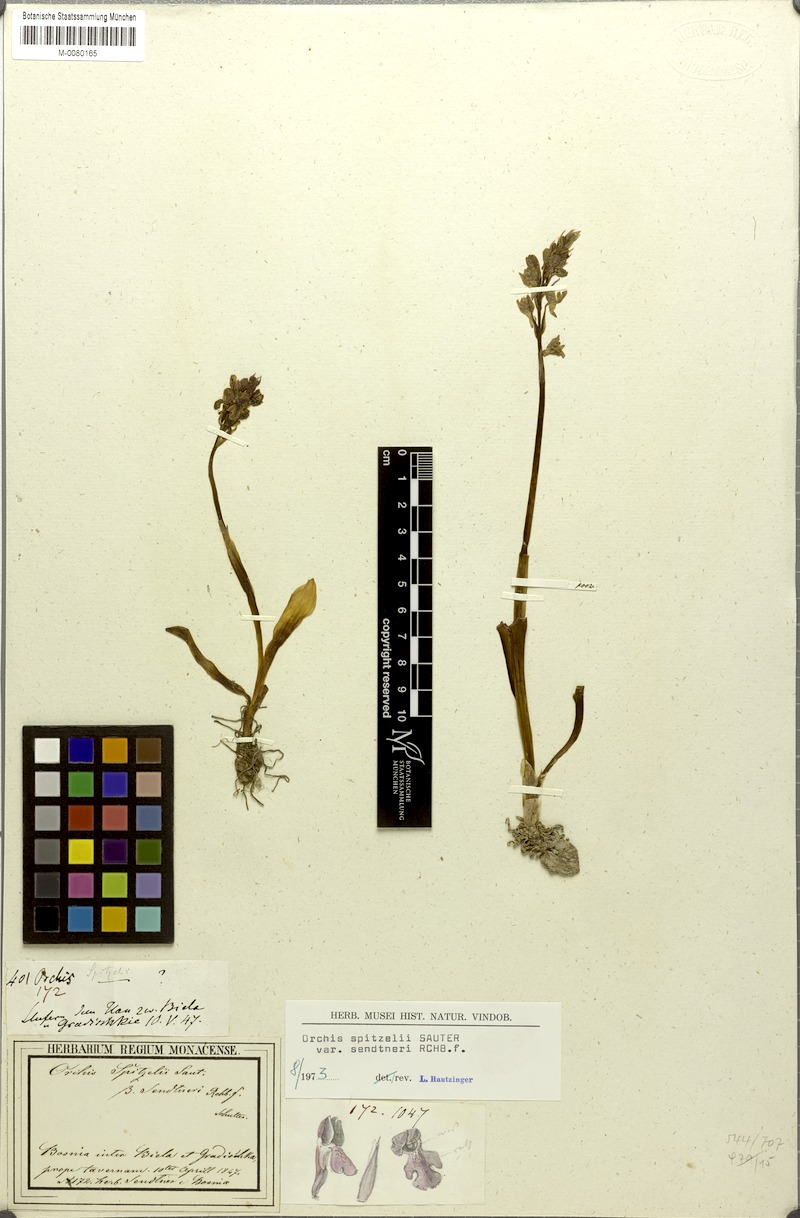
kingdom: Plantae
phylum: Tracheophyta
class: Liliopsida
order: Asparagales
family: Orchidaceae
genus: Orchis
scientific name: Orchis spitzelii
